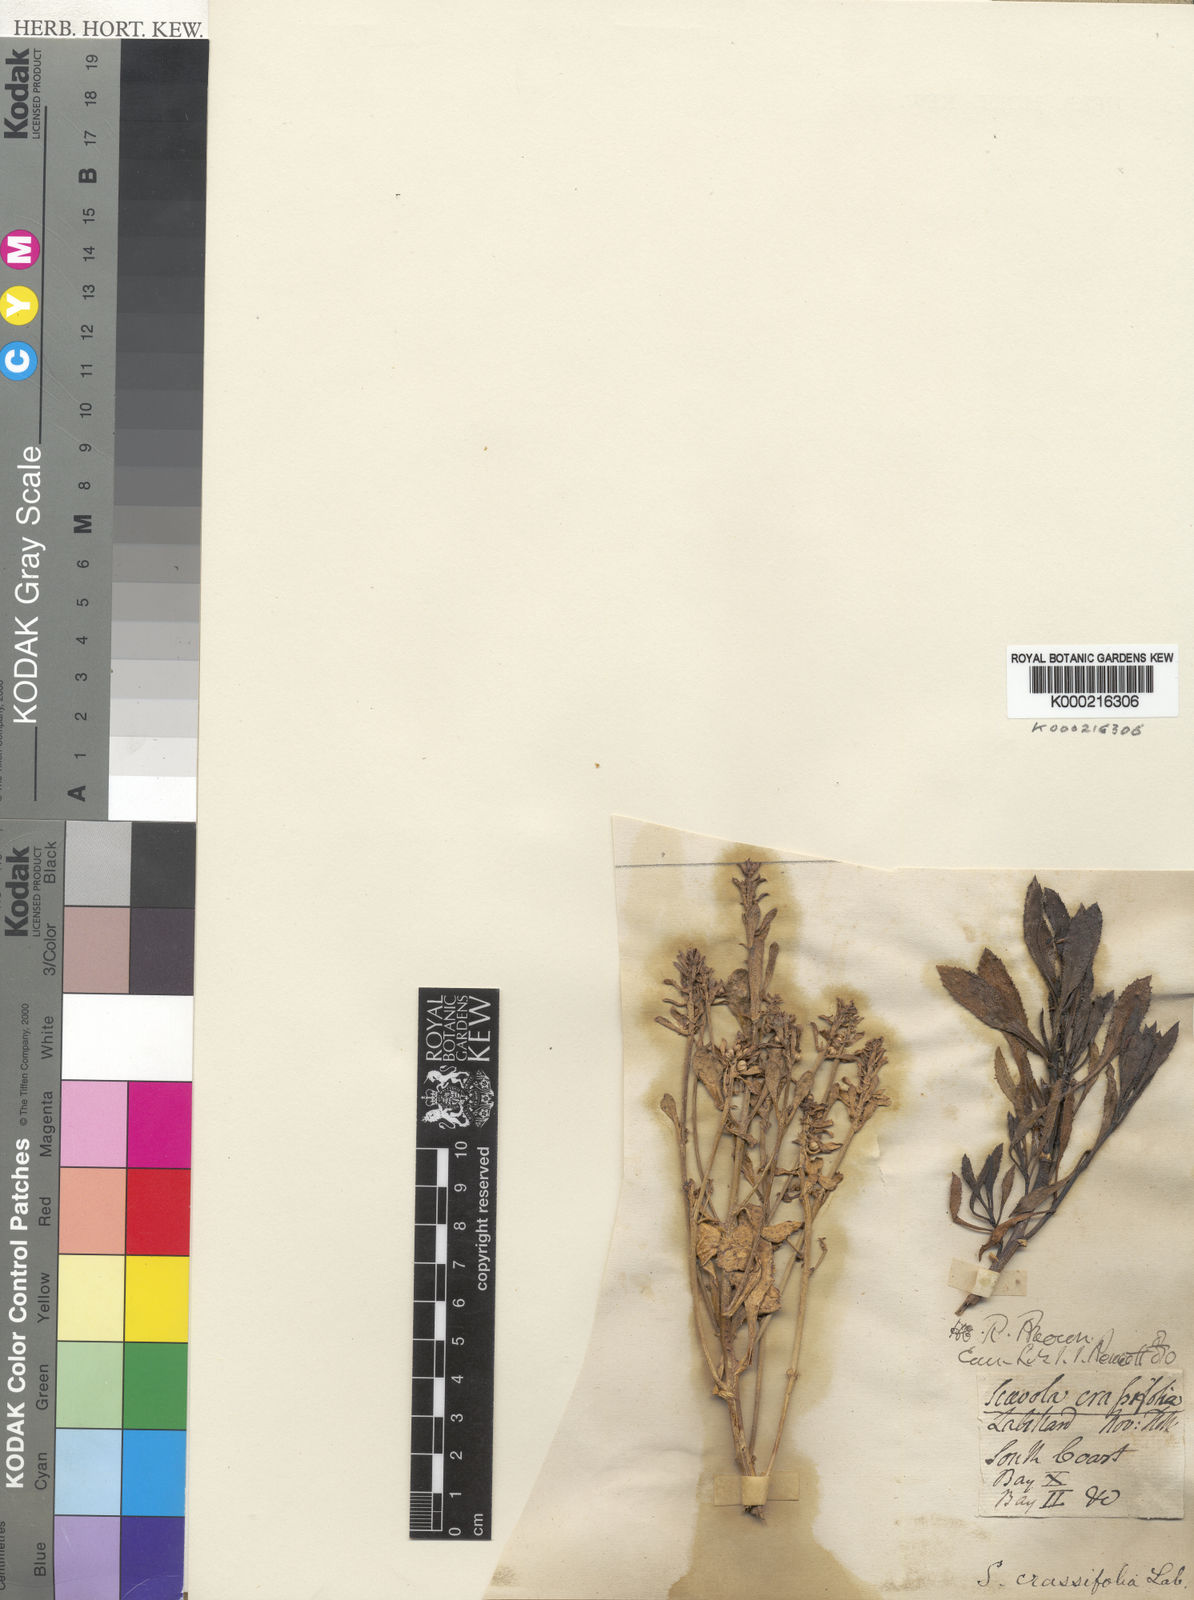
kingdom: Plantae
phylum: Tracheophyta
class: Magnoliopsida
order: Asterales
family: Goodeniaceae
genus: Scaevola
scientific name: Scaevola crassifolia
